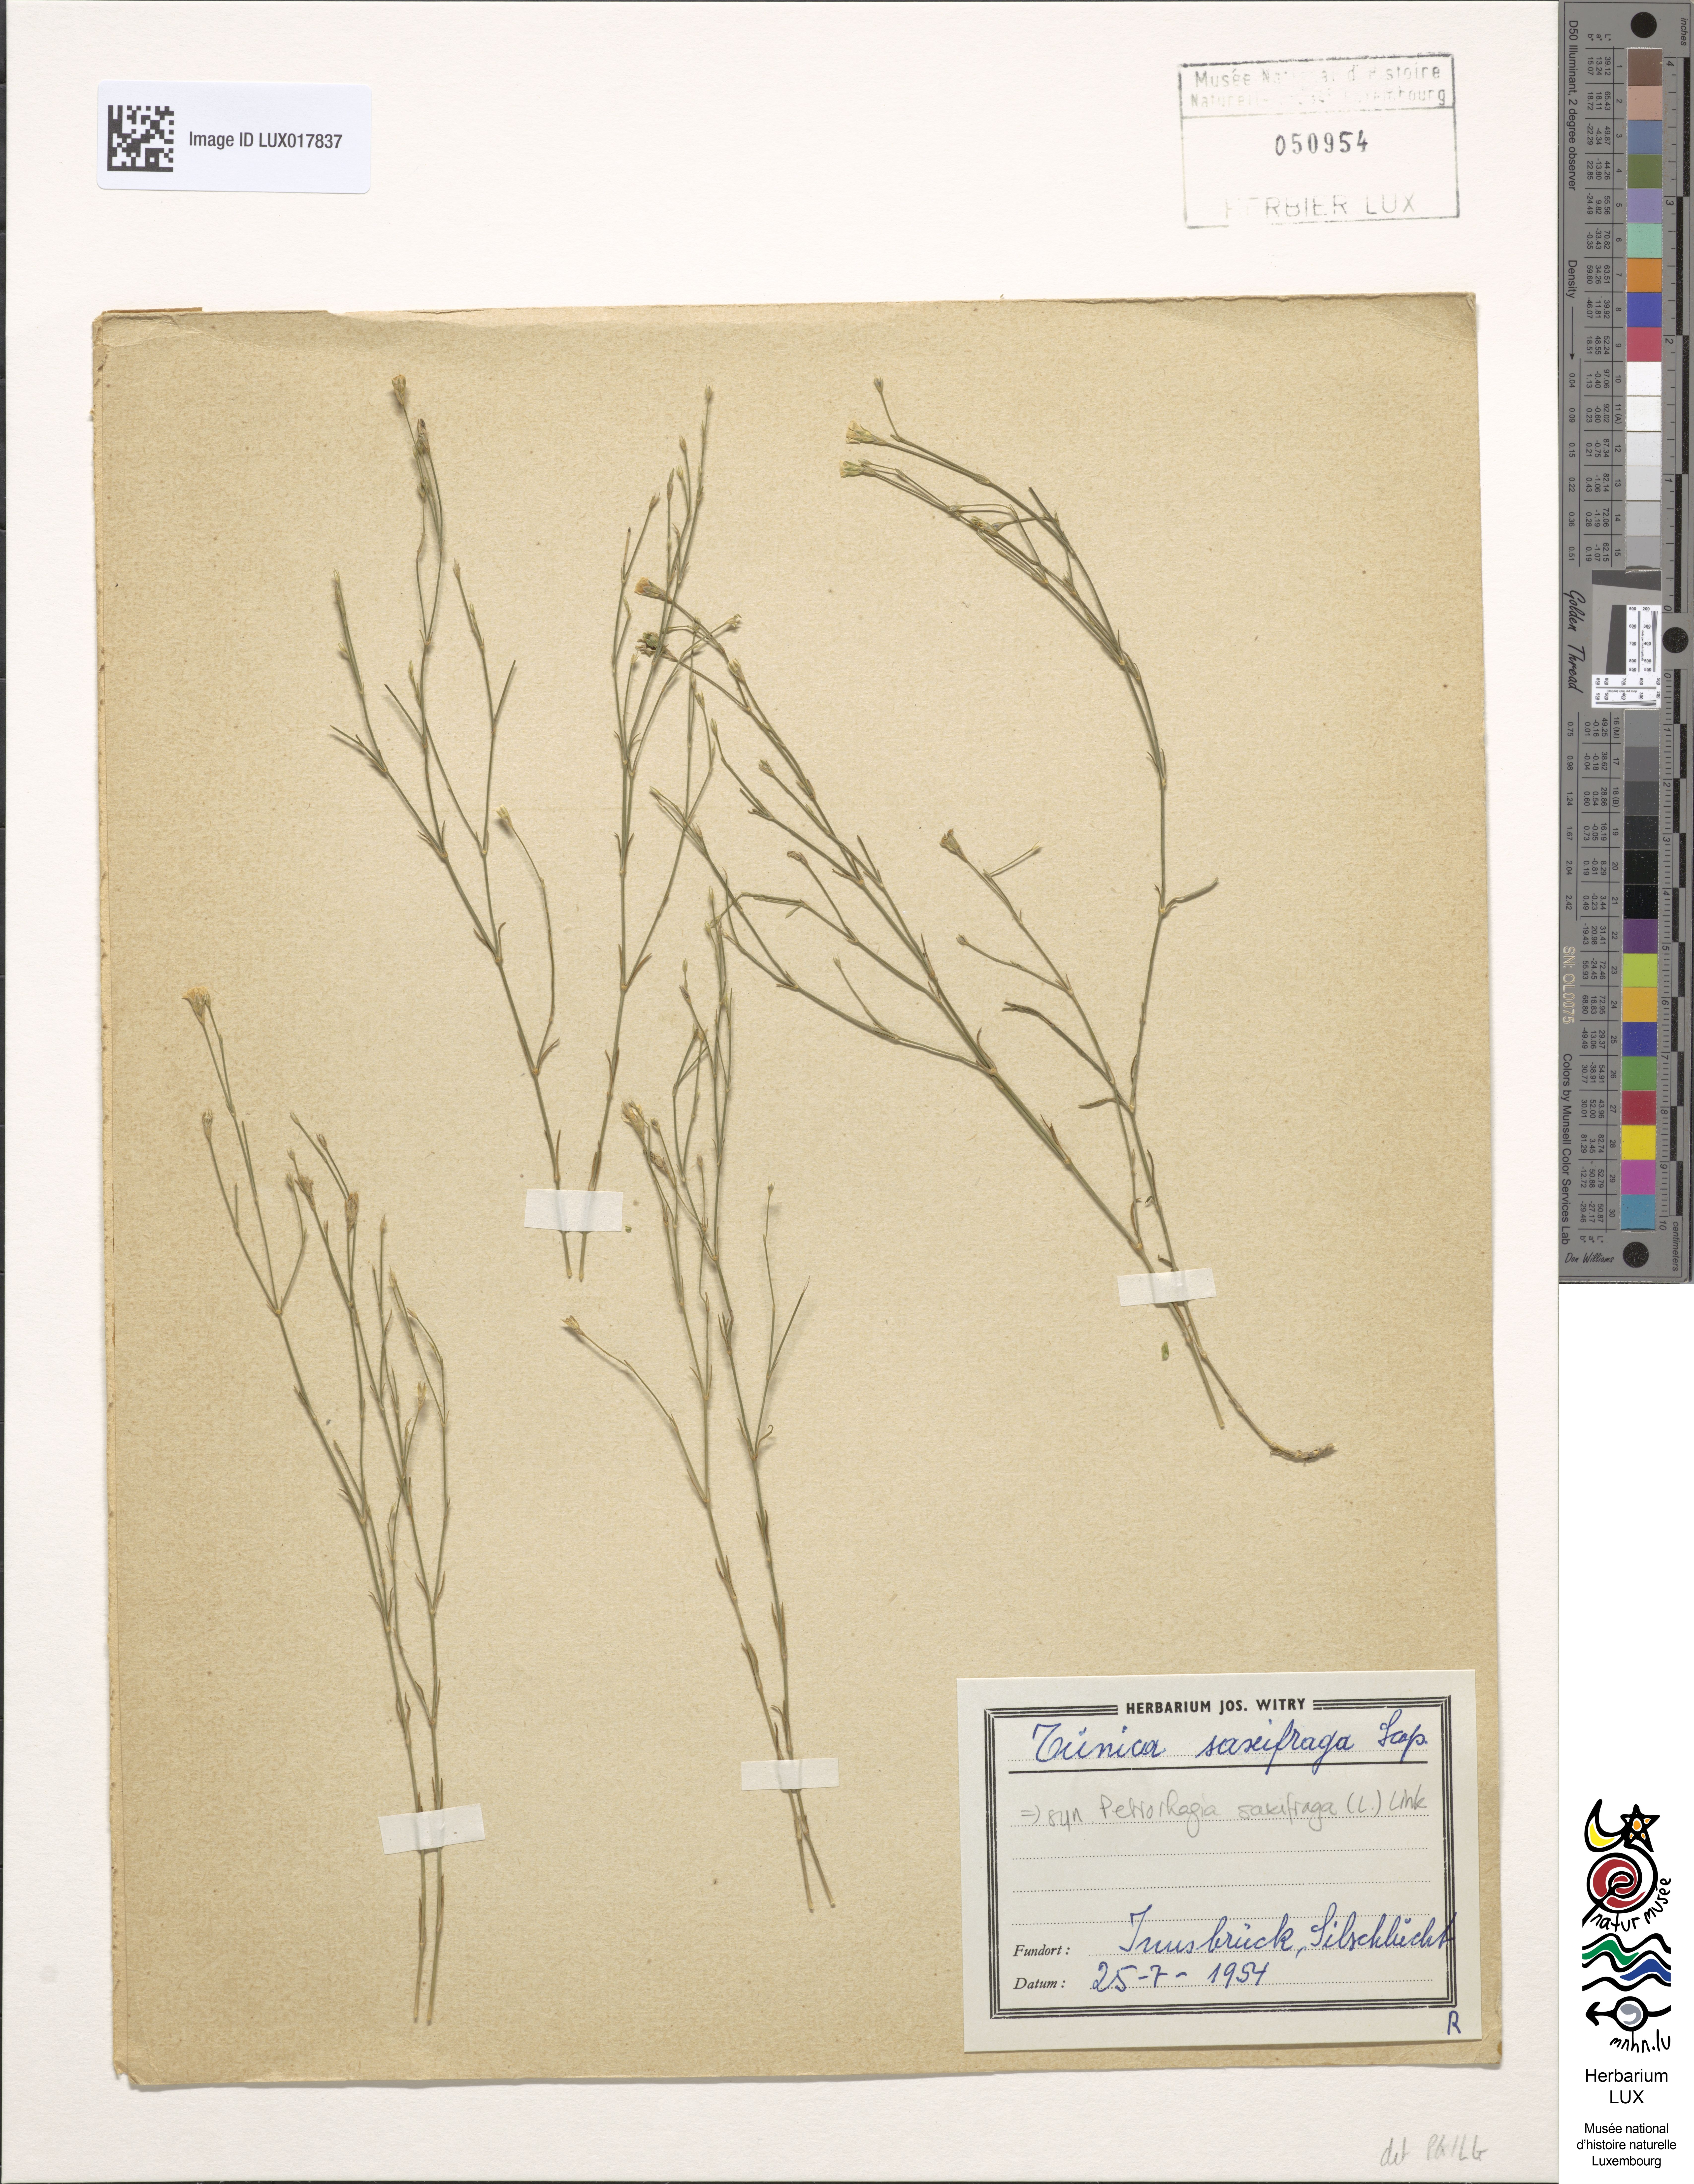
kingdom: Plantae
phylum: Tracheophyta
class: Magnoliopsida
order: Caryophyllales
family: Caryophyllaceae
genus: Petrorhagia
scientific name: Petrorhagia prolifera
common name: Proliferous pink
